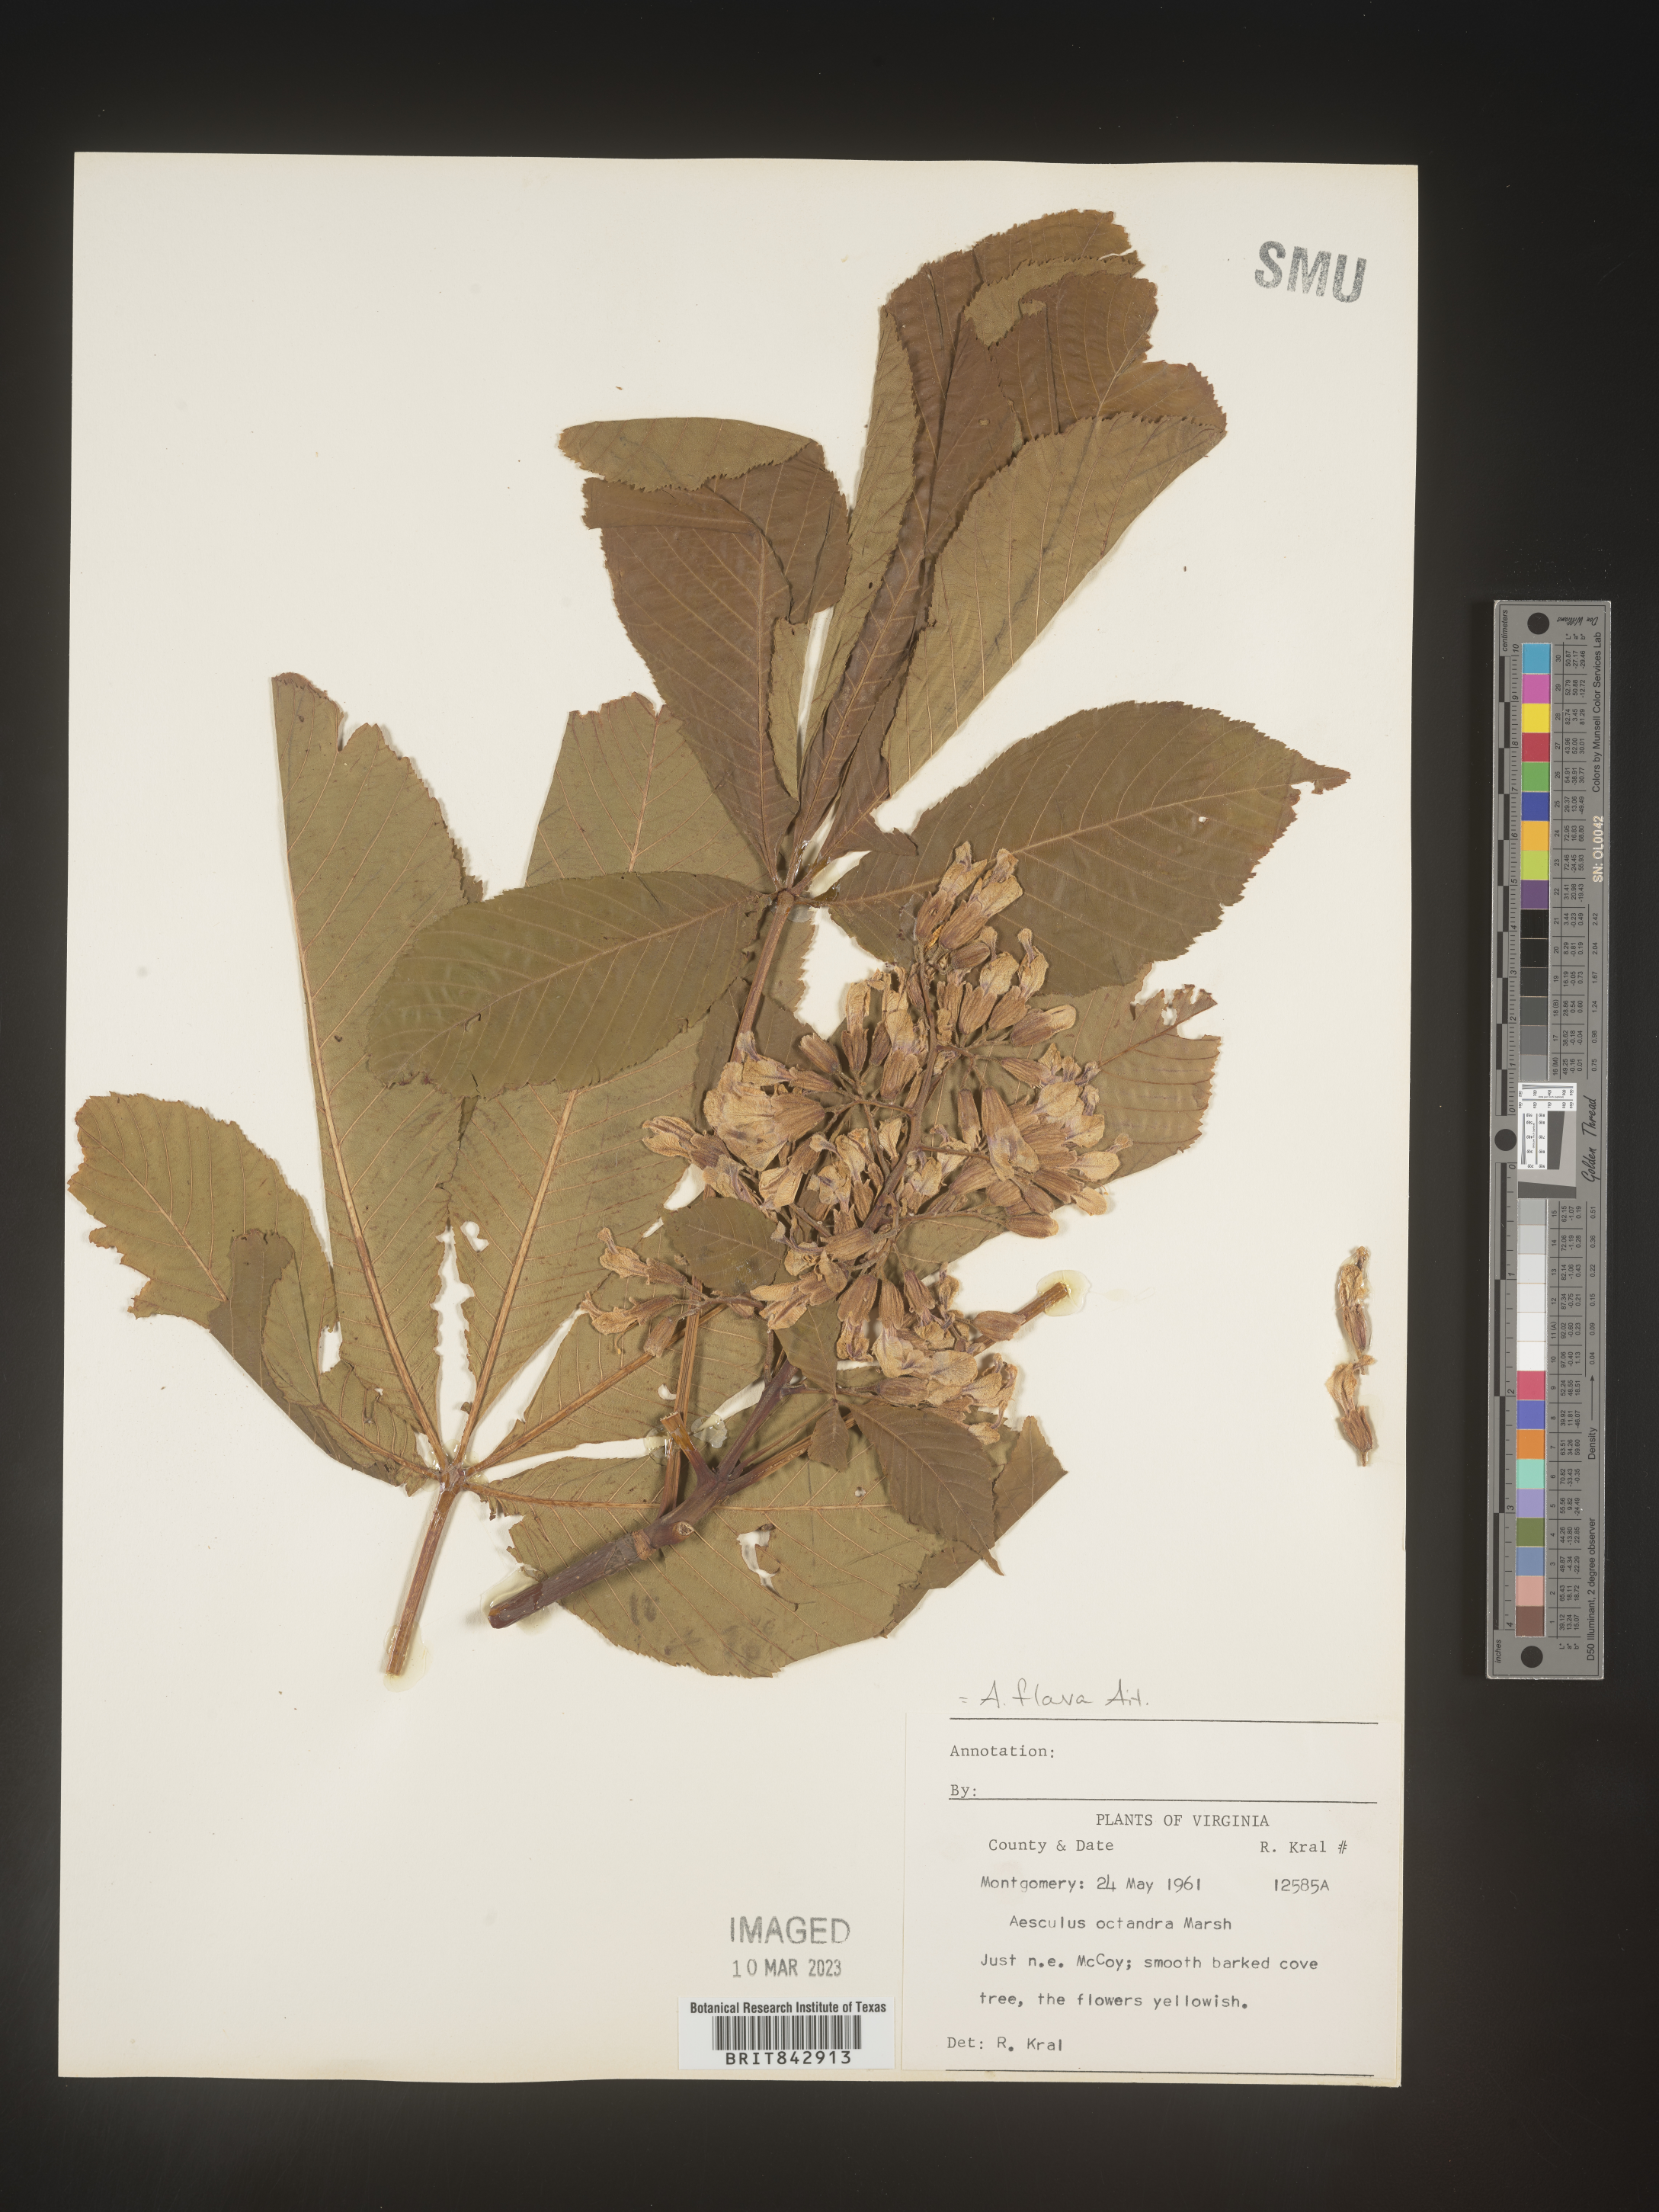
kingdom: Plantae
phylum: Tracheophyta
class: Magnoliopsida
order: Sapindales
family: Sapindaceae
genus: Aesculus
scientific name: Aesculus flava
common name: Yellow buckeye
